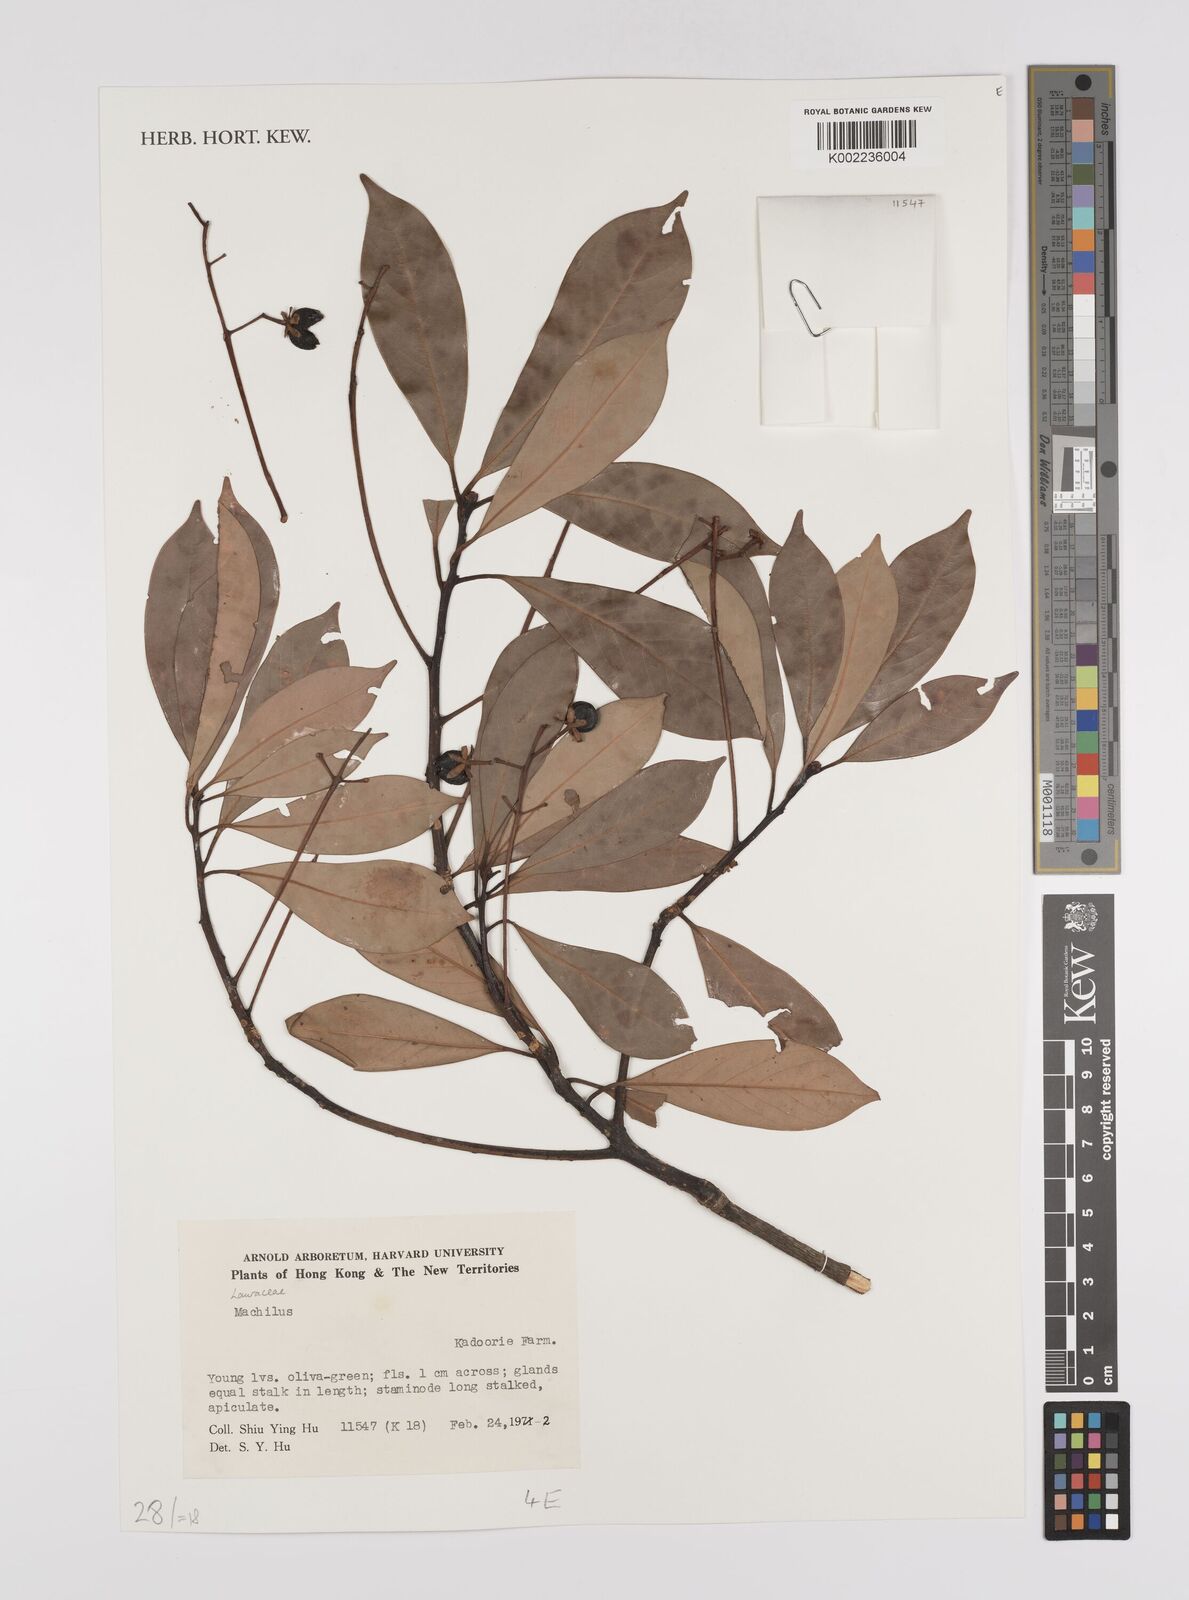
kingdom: Plantae
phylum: Tracheophyta
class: Magnoliopsida
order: Laurales
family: Lauraceae
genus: Persea
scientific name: Persea
